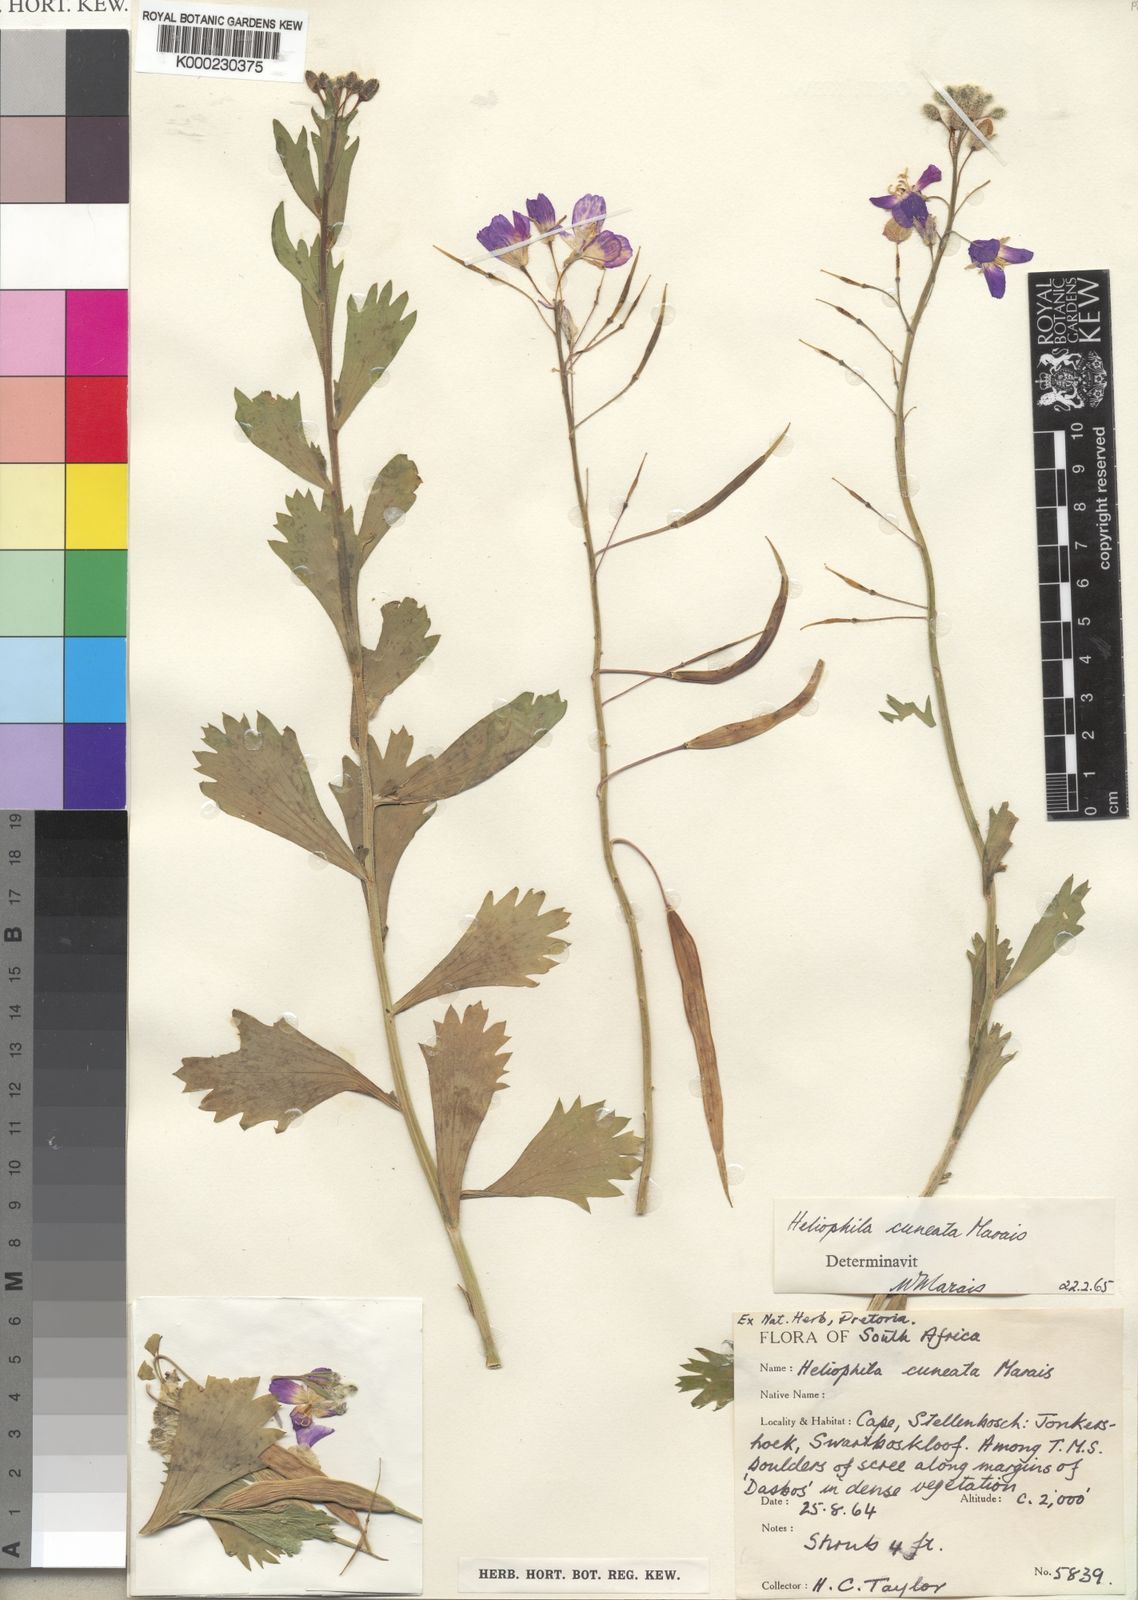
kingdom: Plantae
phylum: Tracheophyta
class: Magnoliopsida
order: Brassicales
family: Brassicaceae
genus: Heliophila
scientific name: Heliophila cuneata
